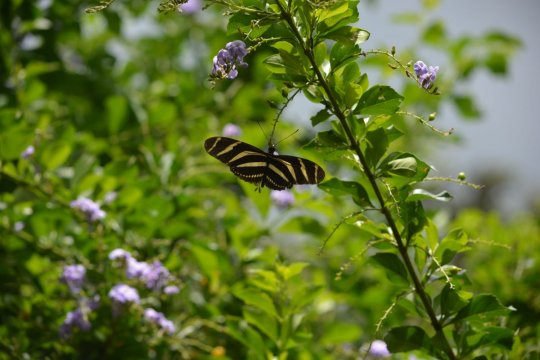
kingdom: Animalia
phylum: Arthropoda
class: Insecta
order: Lepidoptera
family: Nymphalidae
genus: Heliconius
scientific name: Heliconius charithonia
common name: Zebra Longwing
